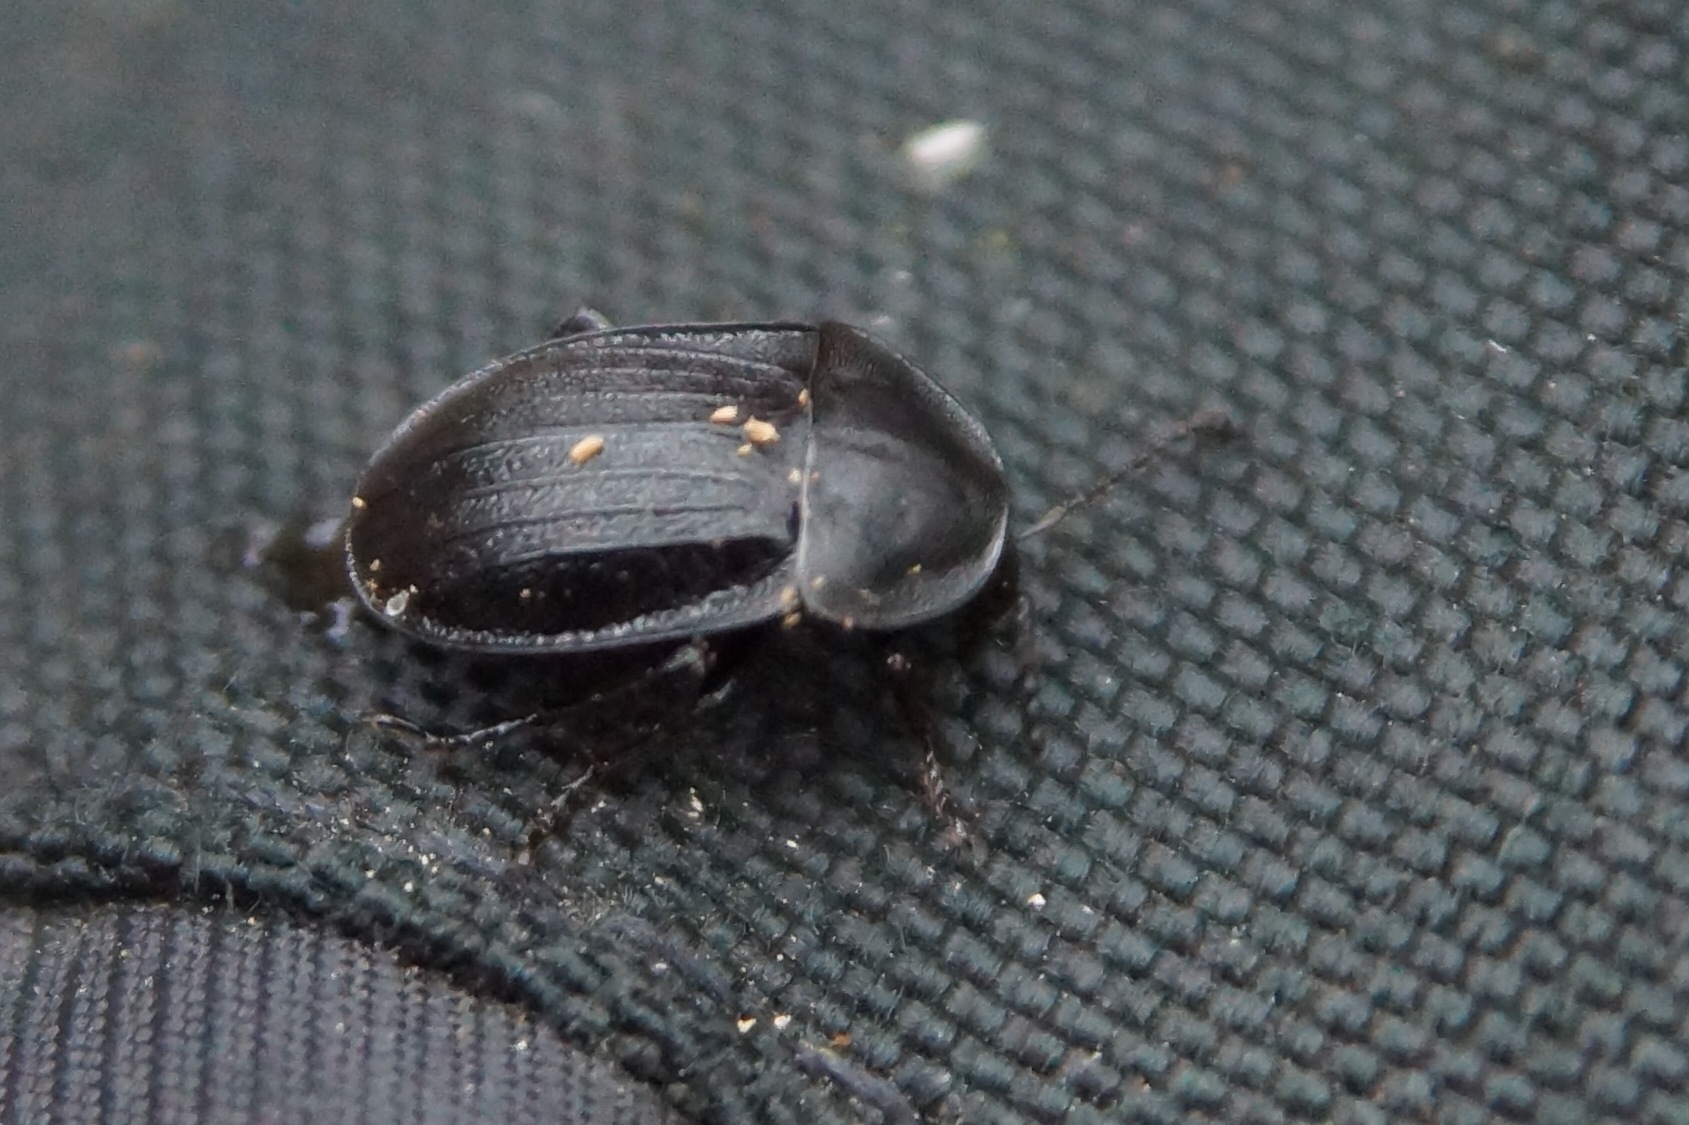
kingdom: Animalia
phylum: Arthropoda
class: Insecta
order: Coleoptera
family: Staphylinidae
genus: Silpha
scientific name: Silpha atrata
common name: Snegleådselbille
